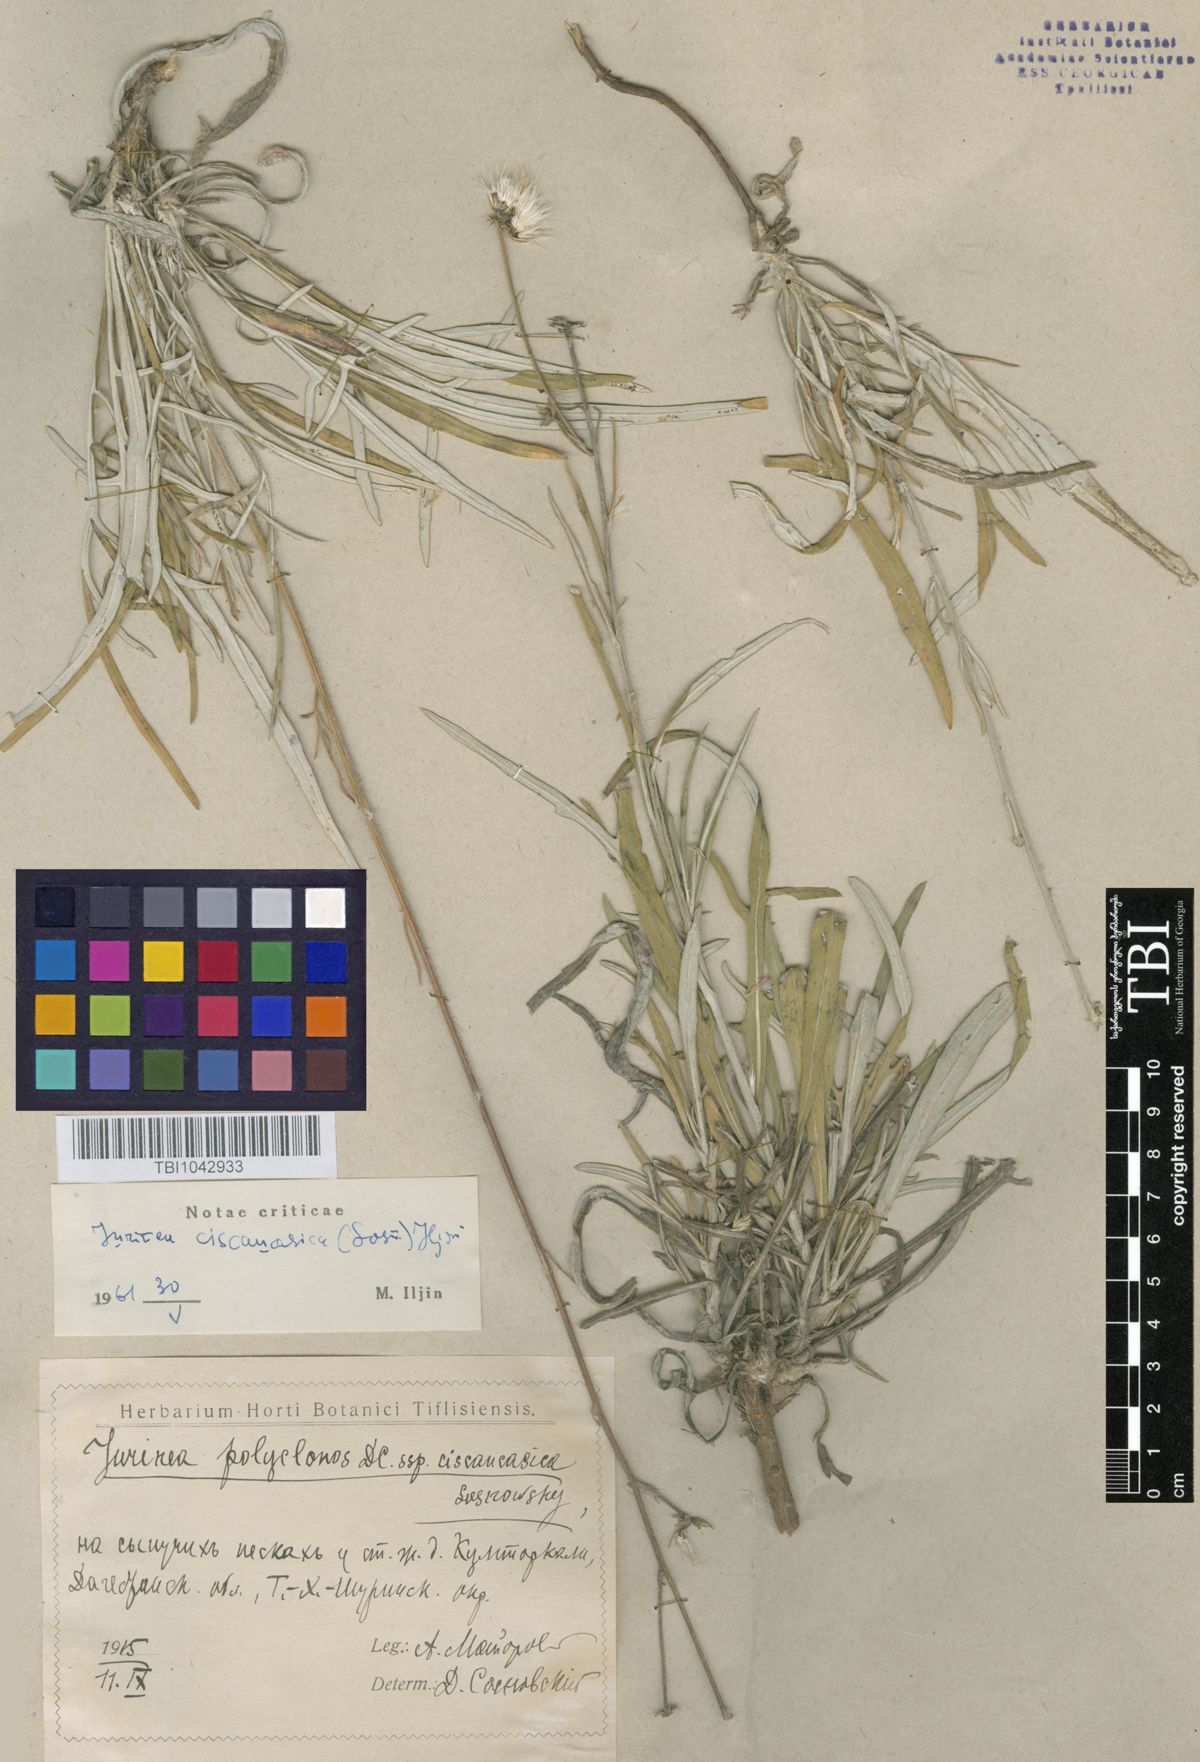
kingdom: Plantae
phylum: Tracheophyta
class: Magnoliopsida
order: Asterales
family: Asteraceae
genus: Jurinea
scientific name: Jurinea ciscaucasica
